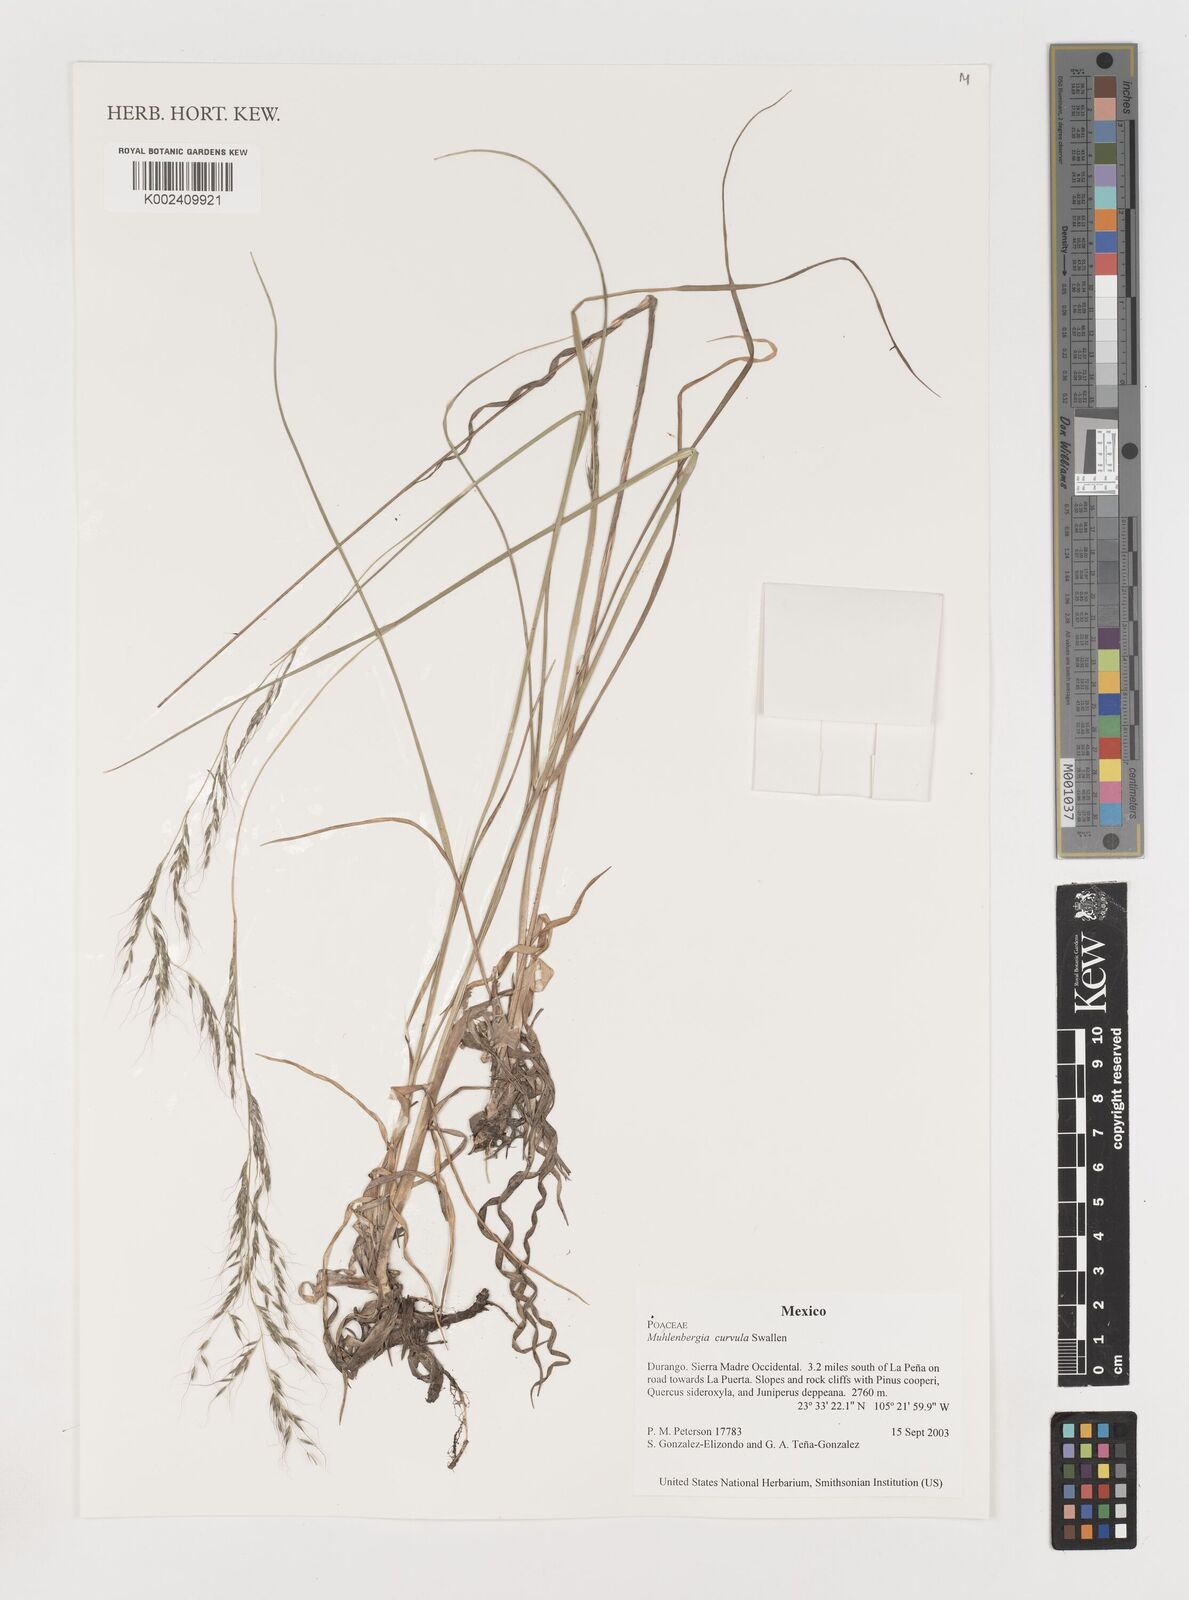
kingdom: Plantae
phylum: Tracheophyta
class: Liliopsida
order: Poales
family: Poaceae
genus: Muhlenbergia
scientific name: Muhlenbergia virescens
